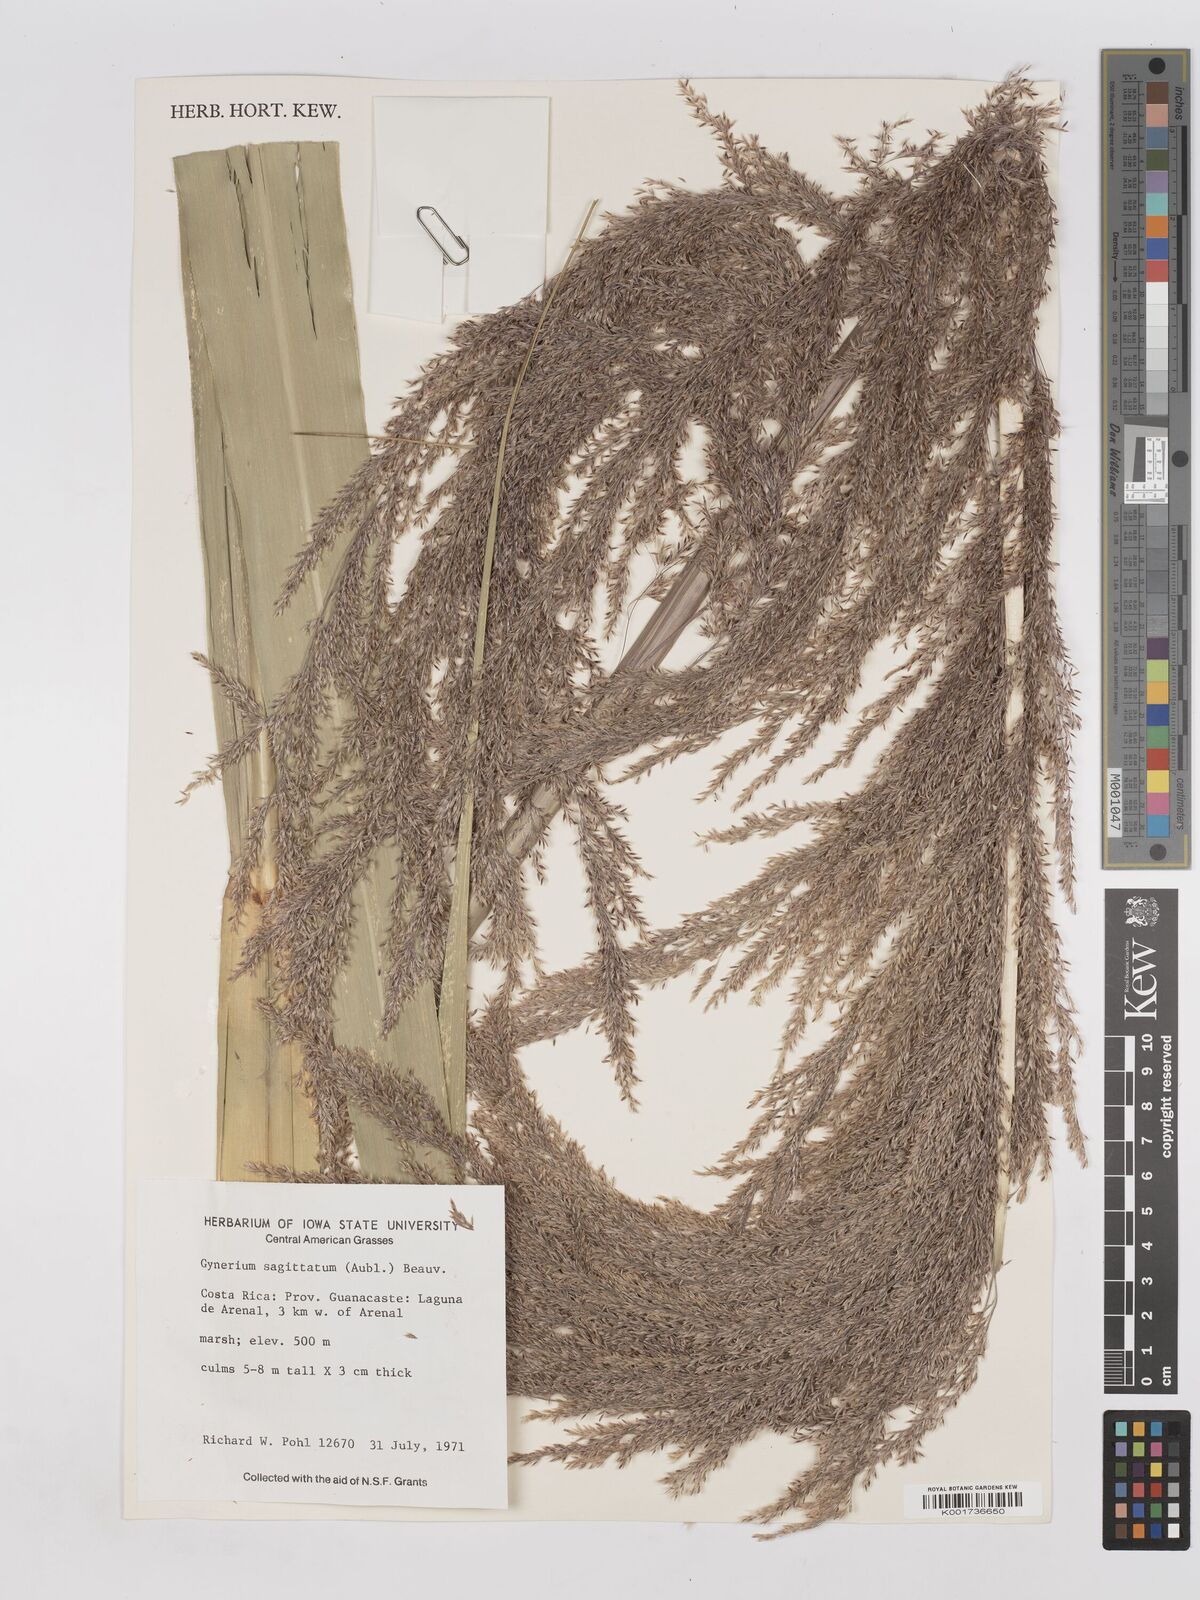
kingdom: Plantae
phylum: Tracheophyta
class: Liliopsida
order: Poales
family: Poaceae
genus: Gynerium
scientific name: Gynerium sagittatum
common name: Wild cane
